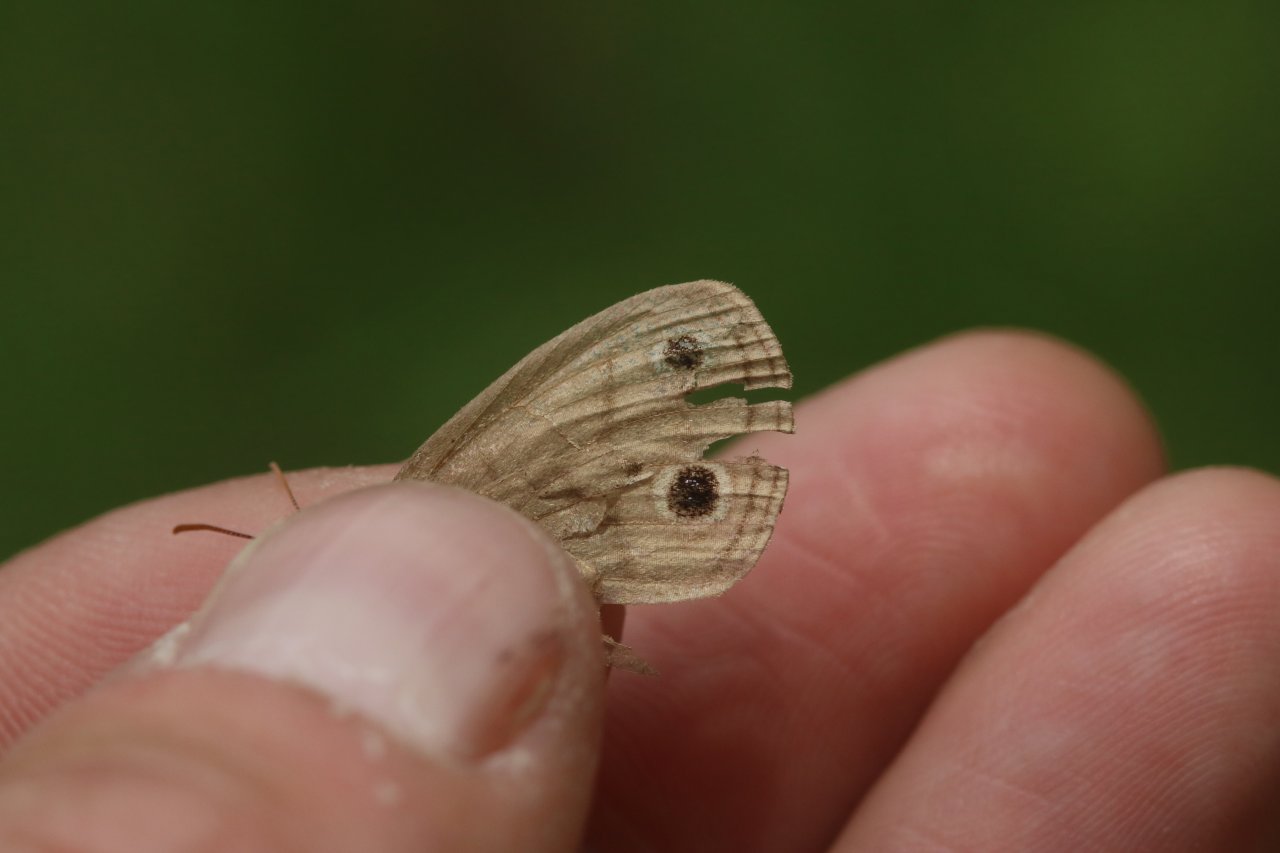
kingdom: Animalia
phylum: Arthropoda
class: Insecta
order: Lepidoptera
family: Nymphalidae
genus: Euptychia
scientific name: Euptychia cymela
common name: Little Wood Satyr
